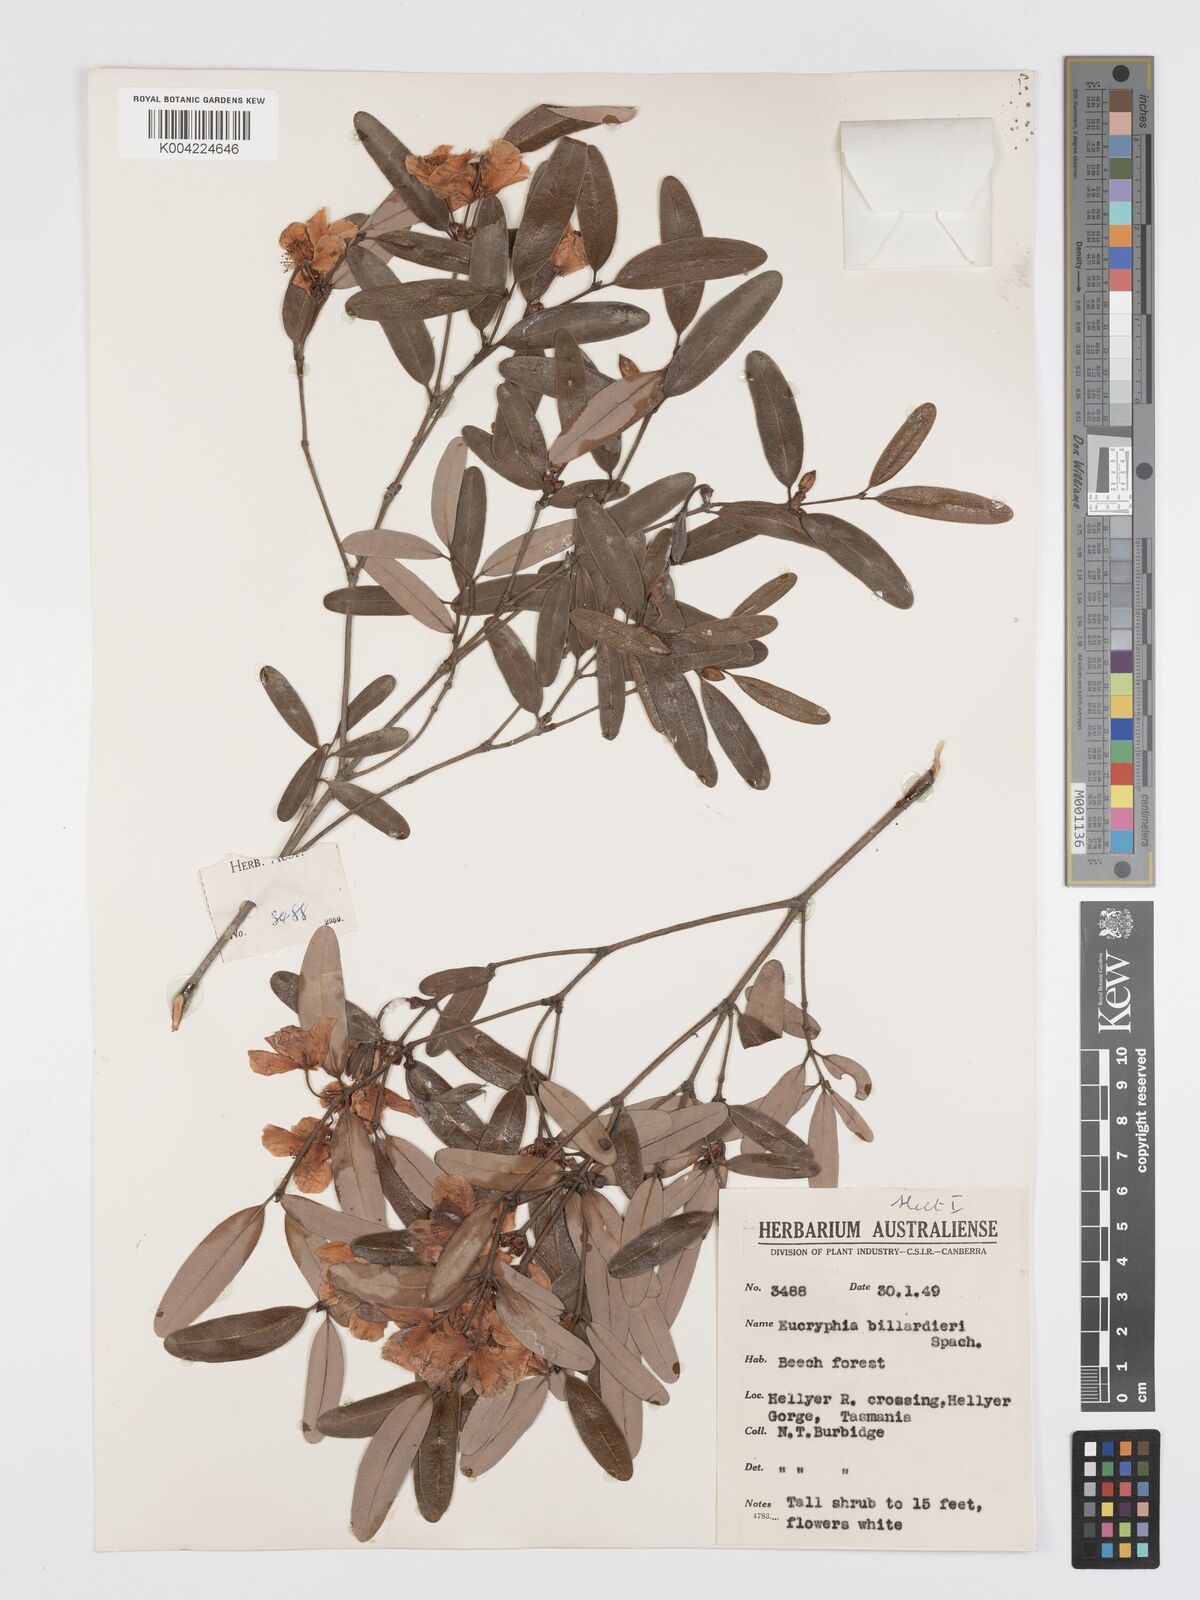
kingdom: Plantae
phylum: Tracheophyta
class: Magnoliopsida
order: Oxalidales
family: Cunoniaceae
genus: Eucryphia
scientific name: Eucryphia lucida
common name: Leatherwood
